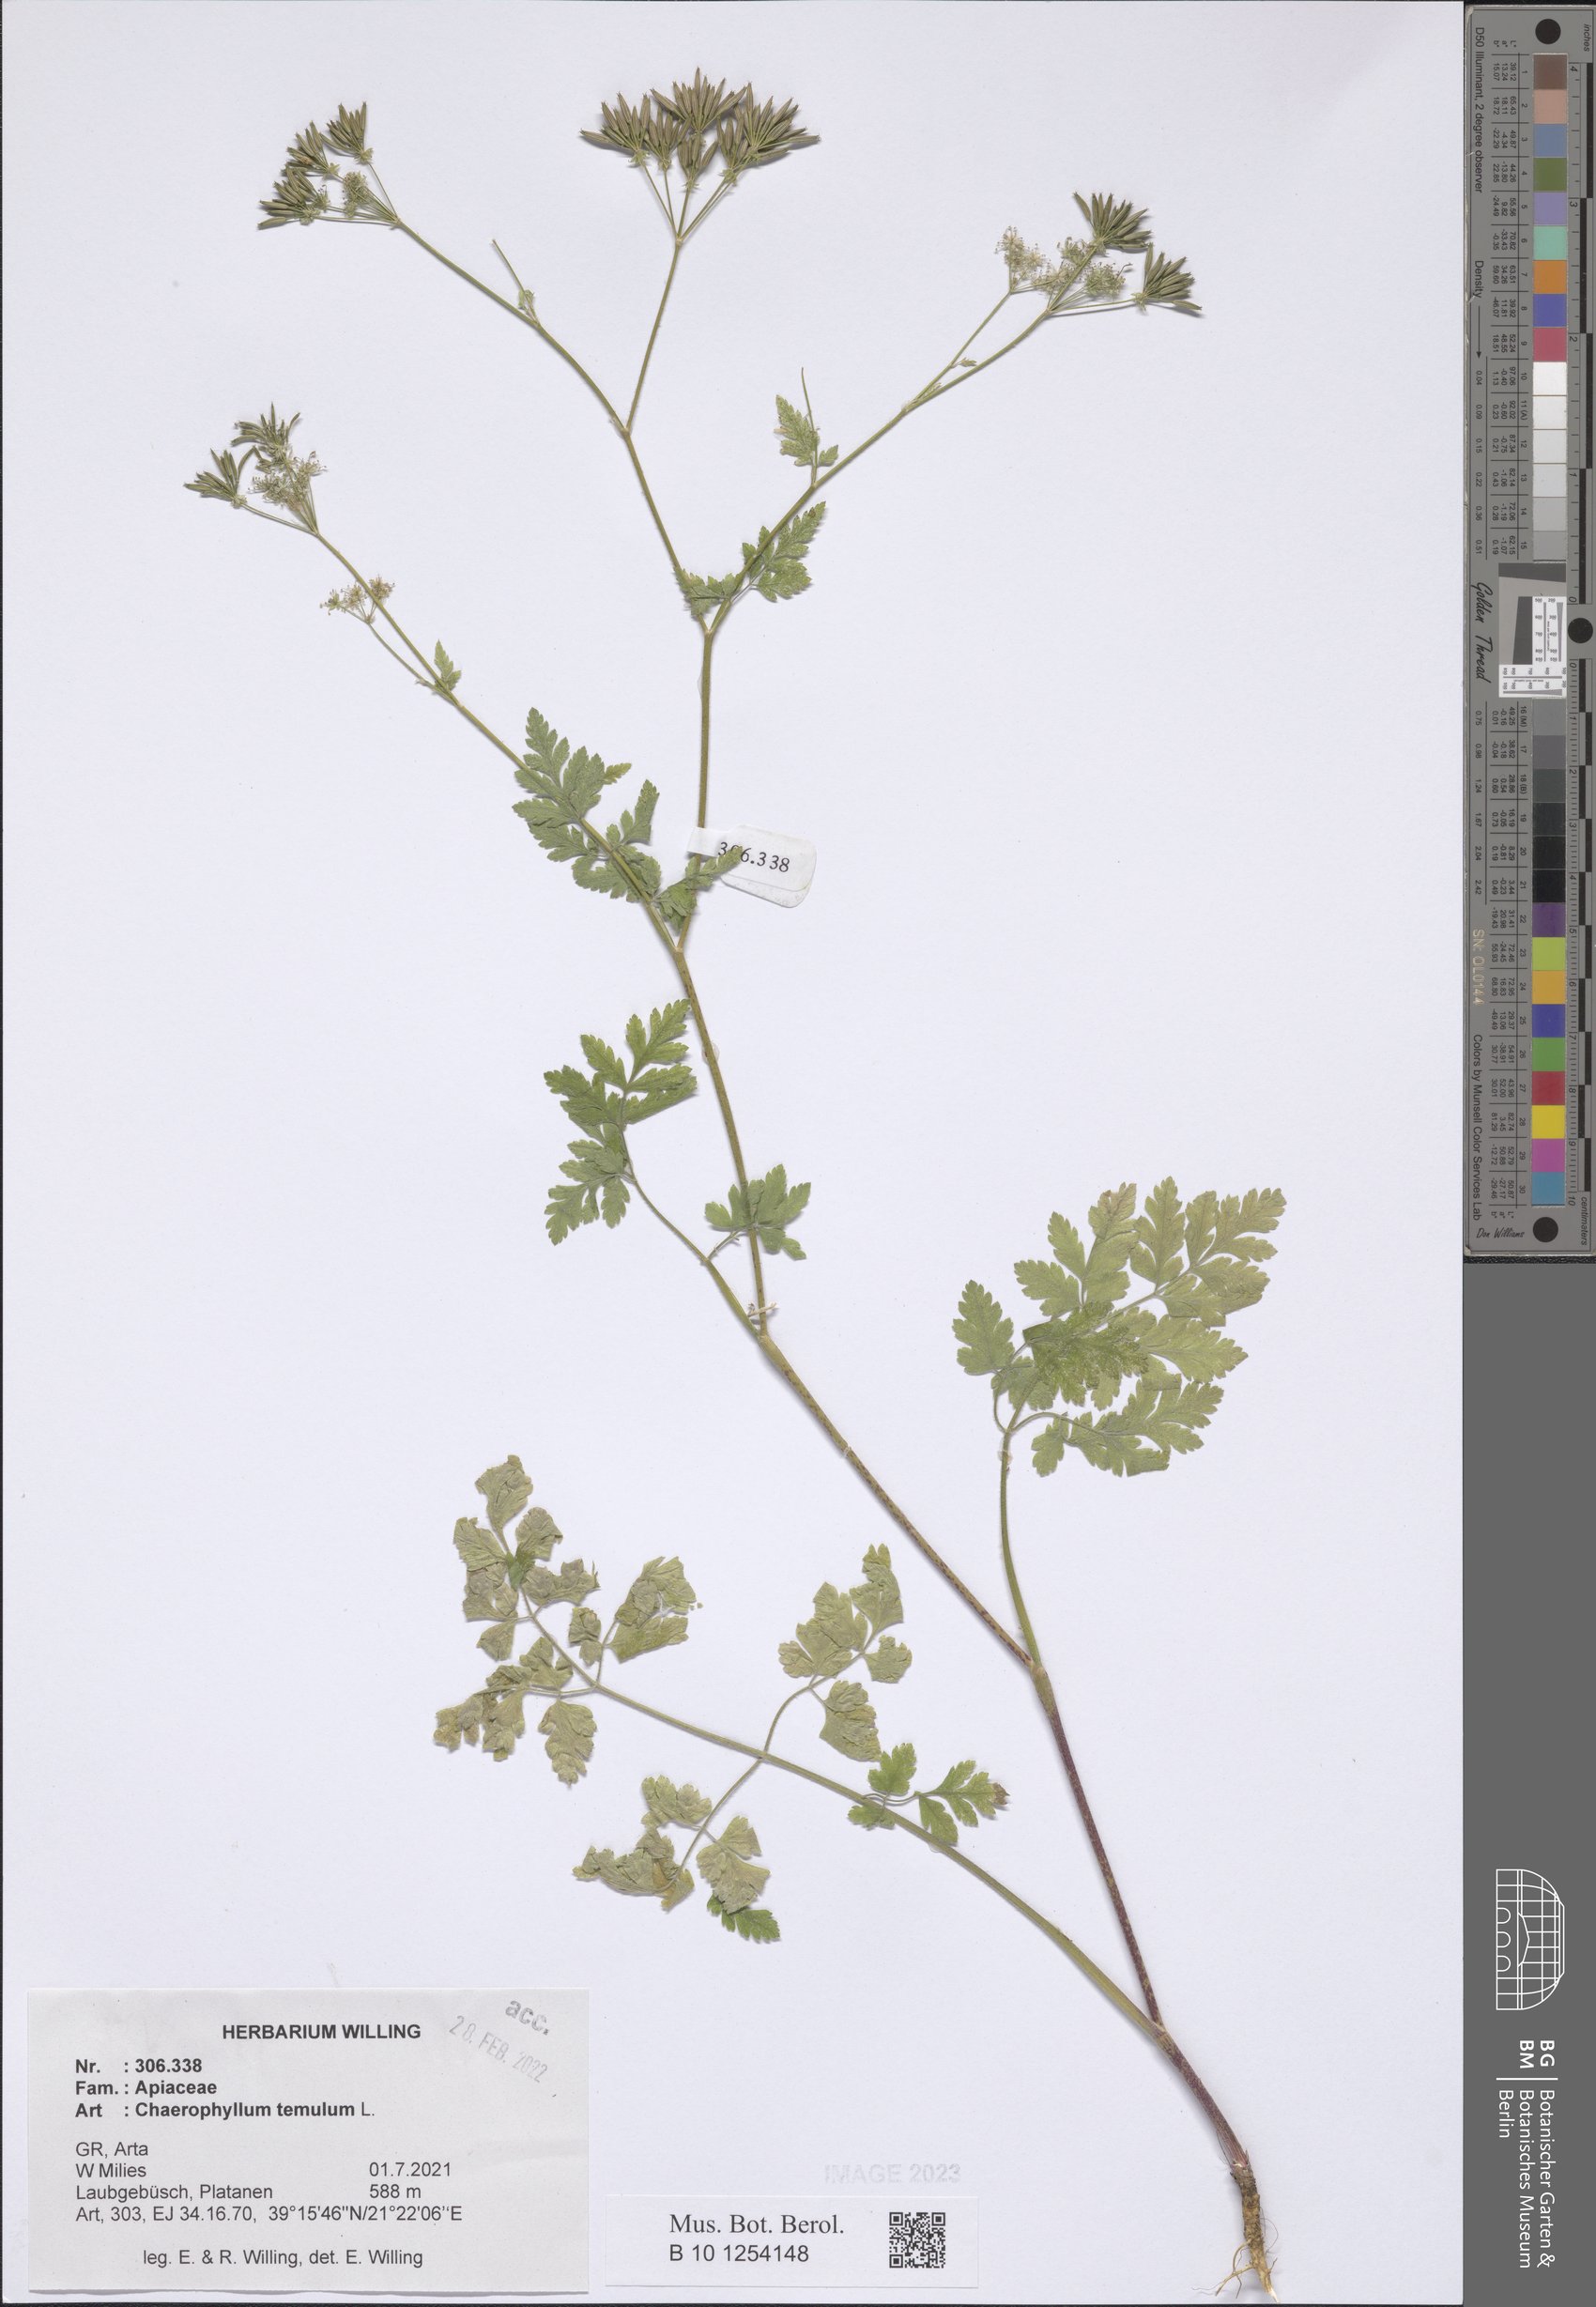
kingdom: Plantae
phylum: Tracheophyta
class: Magnoliopsida
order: Apiales
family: Apiaceae
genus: Chaerophyllum
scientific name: Chaerophyllum temulum
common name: Rough chervil
